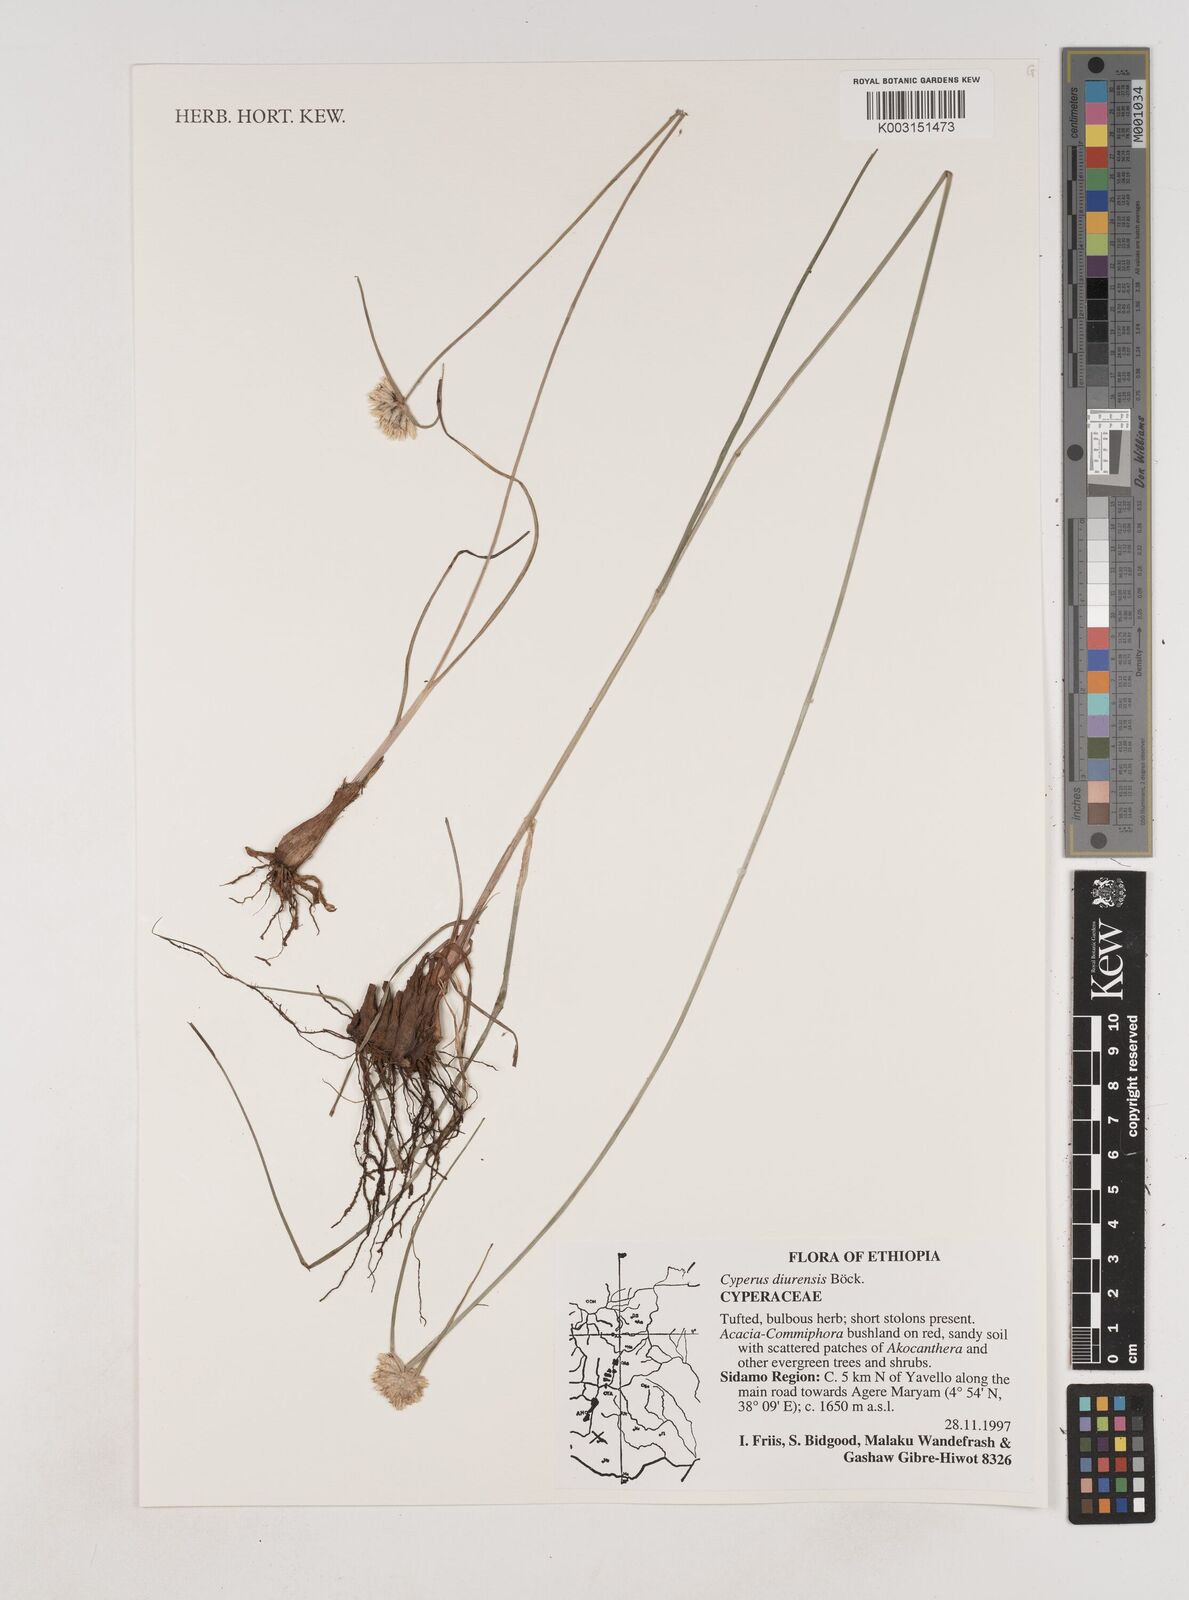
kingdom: Plantae
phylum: Tracheophyta
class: Liliopsida
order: Poales
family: Cyperaceae
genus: Cyperus
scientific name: Cyperus diurensis
